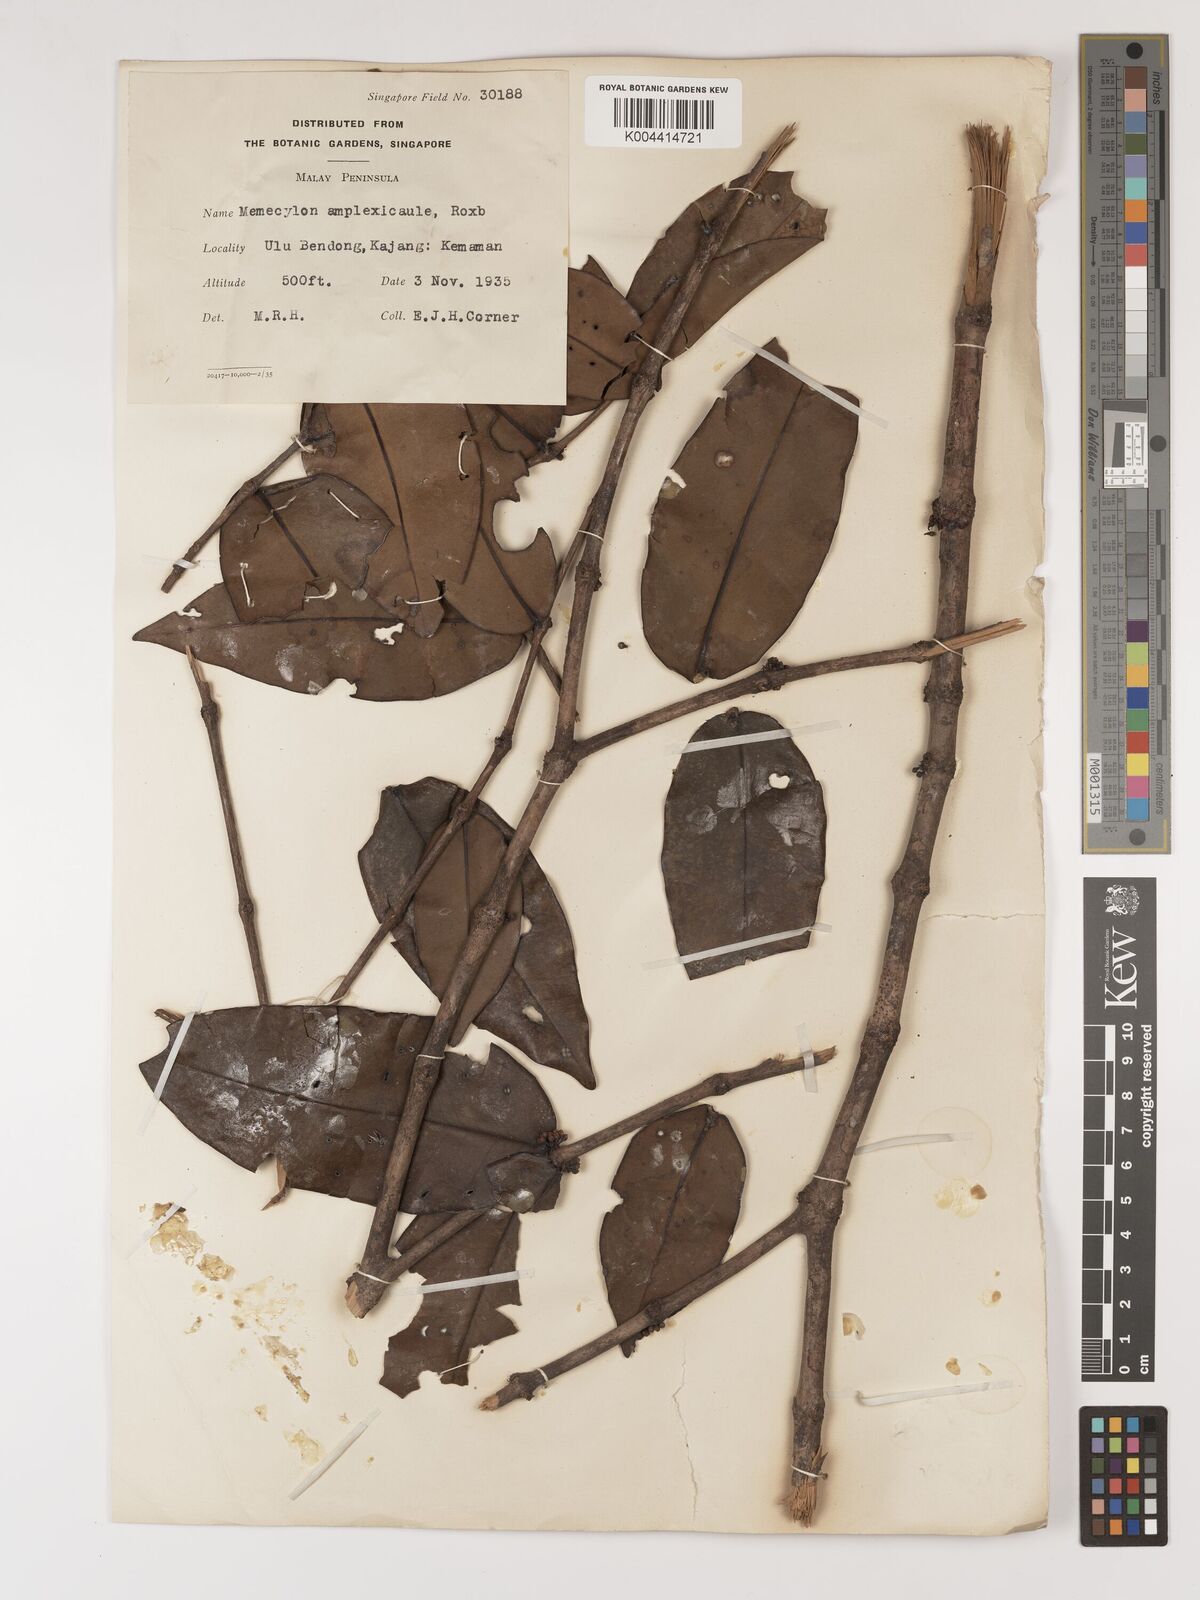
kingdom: Plantae
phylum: Tracheophyta
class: Magnoliopsida
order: Myrtales
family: Melastomataceae
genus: Memecylon
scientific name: Memecylon amplexicaule
